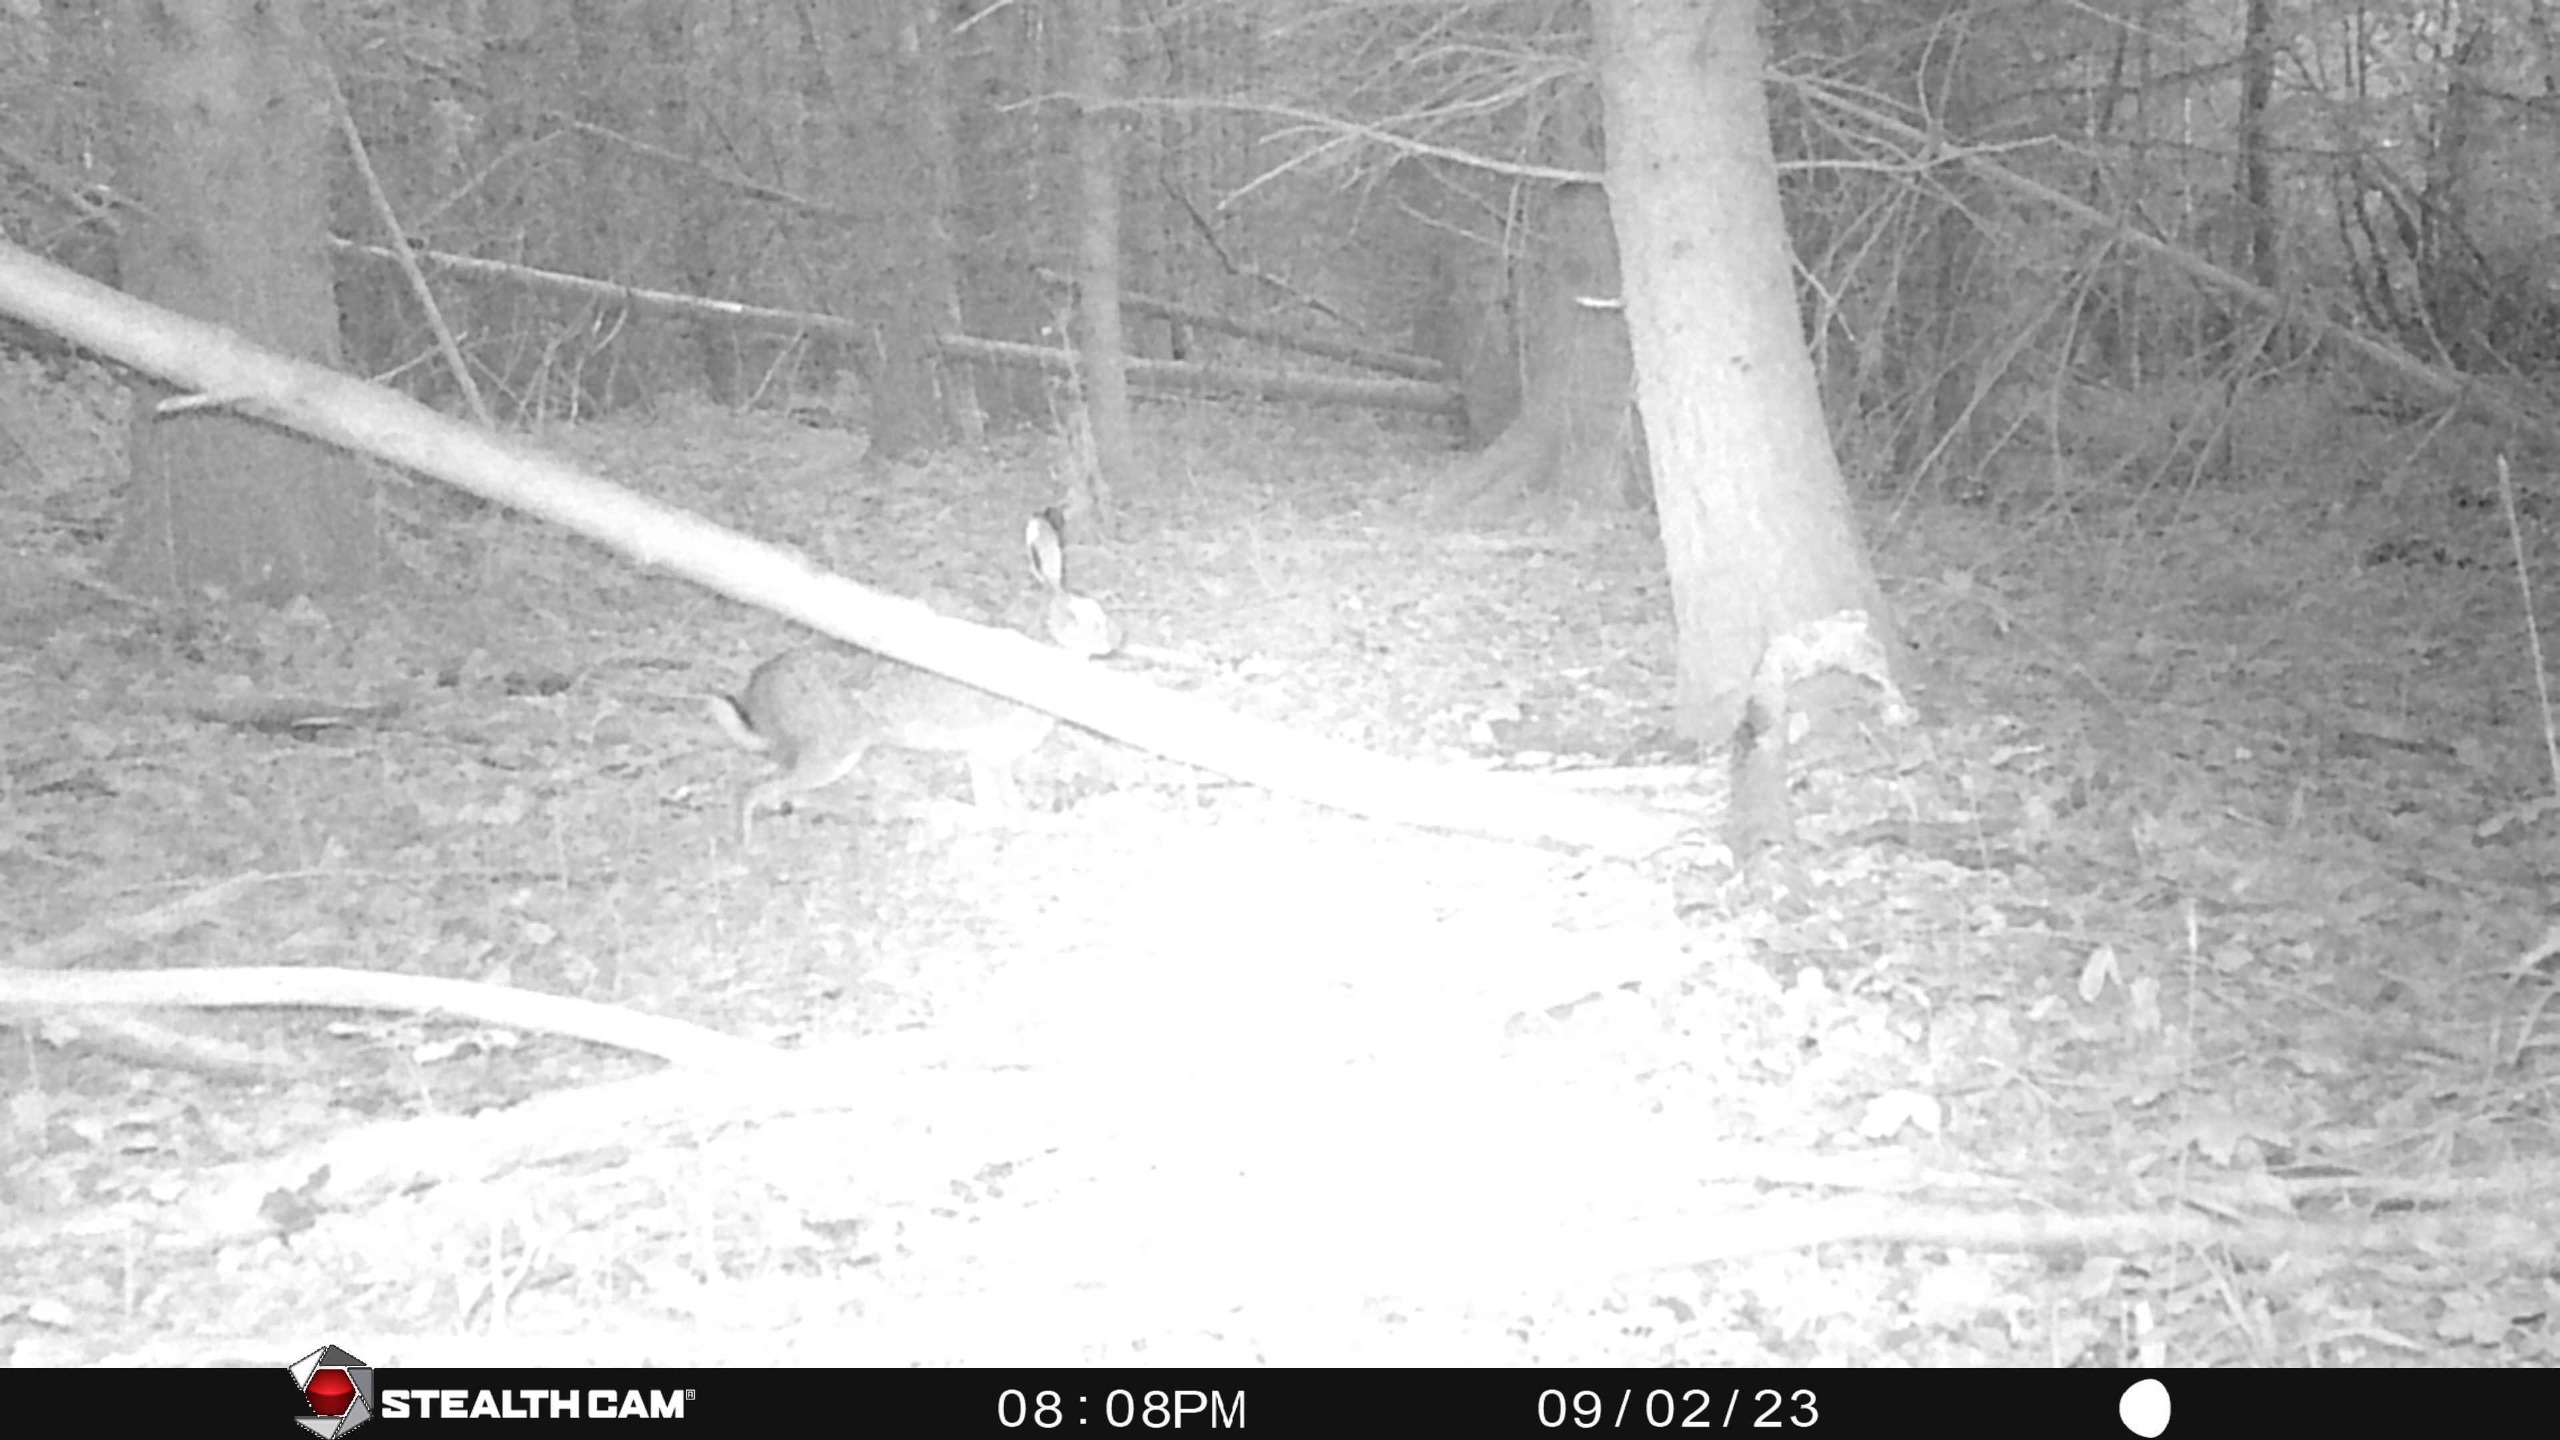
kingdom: Animalia
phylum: Chordata
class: Mammalia
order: Lagomorpha
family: Leporidae
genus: Lepus
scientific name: Lepus europaeus
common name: Hare
